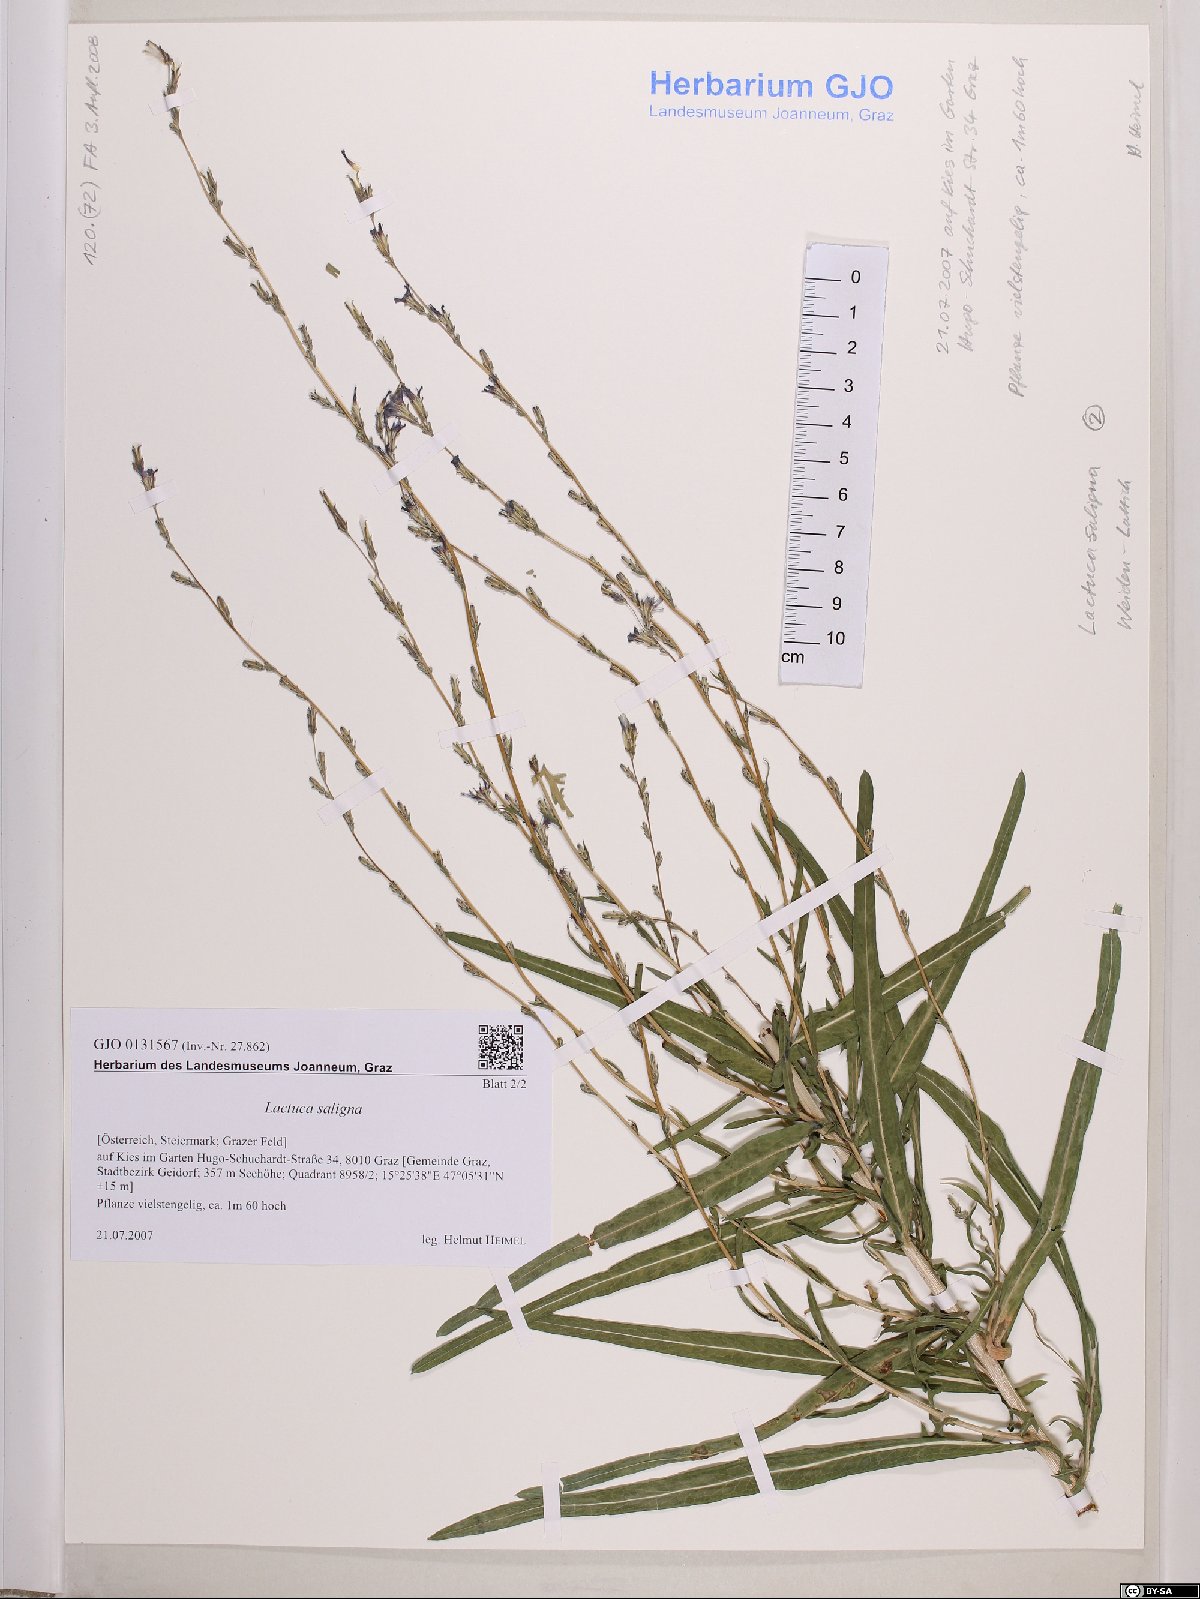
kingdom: Plantae
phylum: Tracheophyta
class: Magnoliopsida
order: Asterales
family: Asteraceae
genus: Lactuca
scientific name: Lactuca saligna
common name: Wild lettuce
